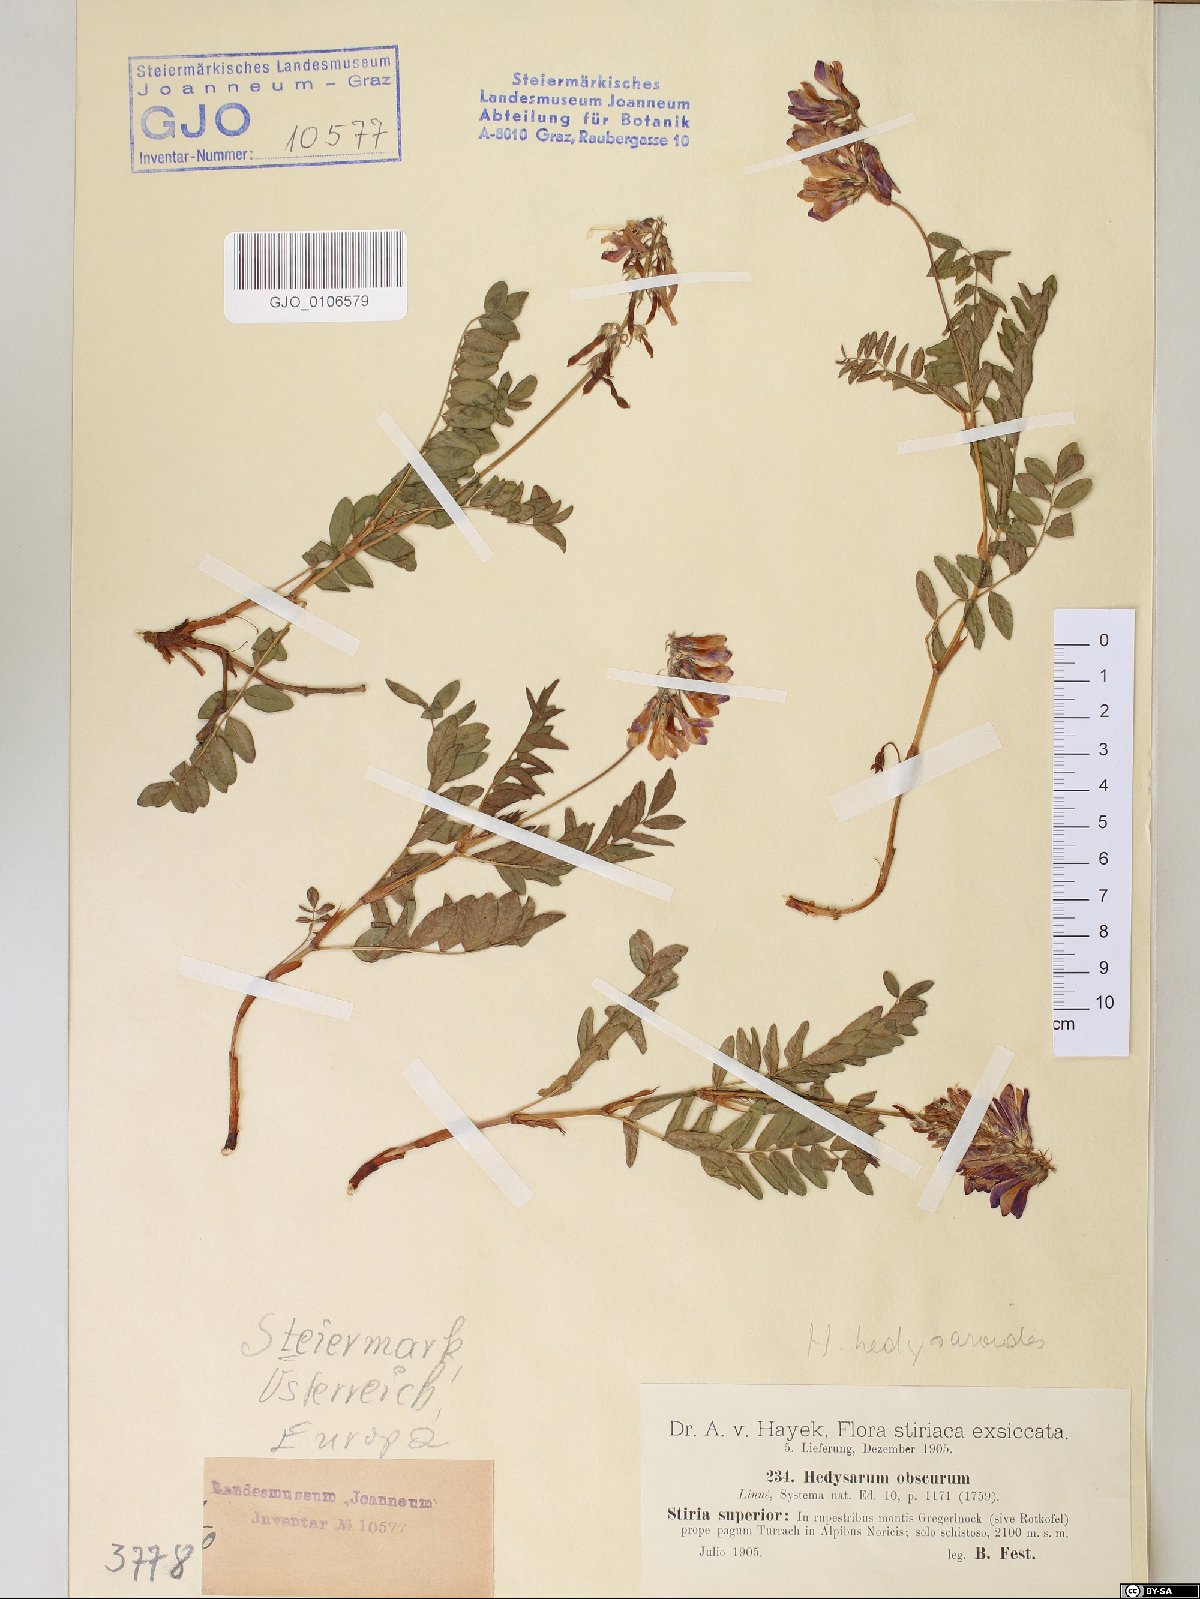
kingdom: Plantae
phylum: Tracheophyta
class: Magnoliopsida
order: Fabales
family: Fabaceae
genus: Hedysarum
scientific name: Hedysarum hedysaroides
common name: Alpine french-honeysuckle
